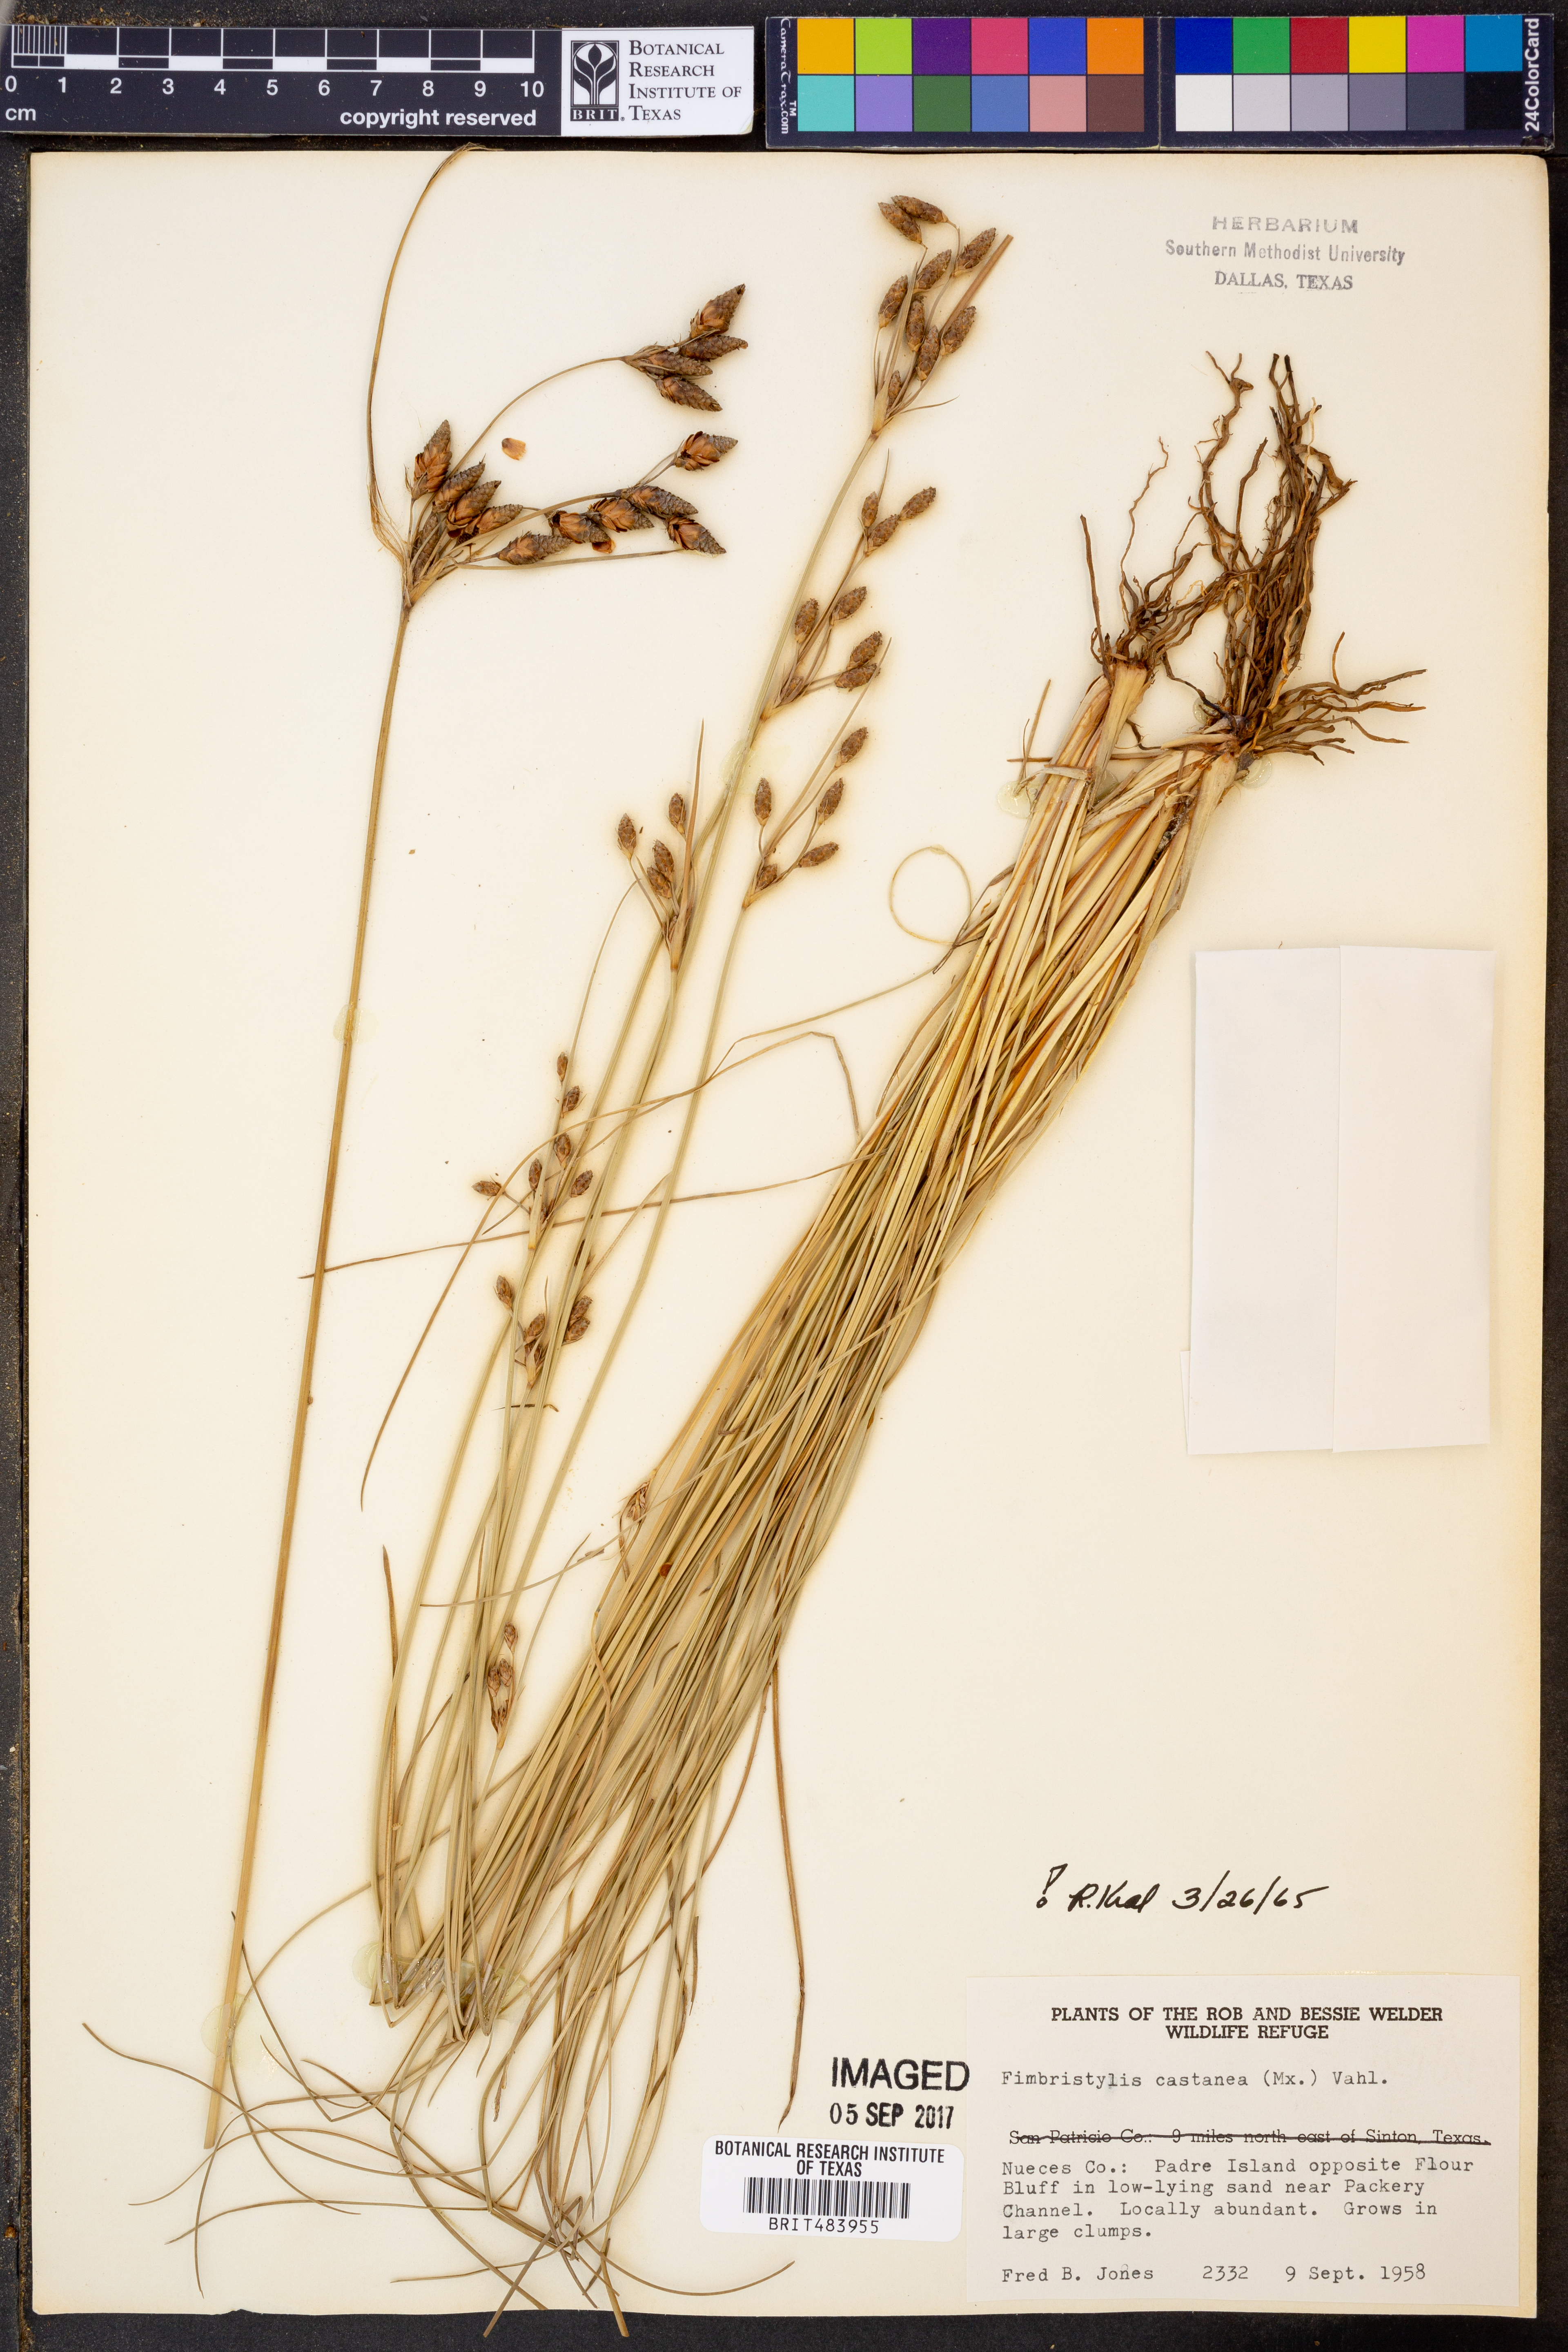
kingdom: Plantae
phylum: Tracheophyta
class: Liliopsida
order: Poales
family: Cyperaceae
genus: Fimbristylis
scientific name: Fimbristylis spadicea
